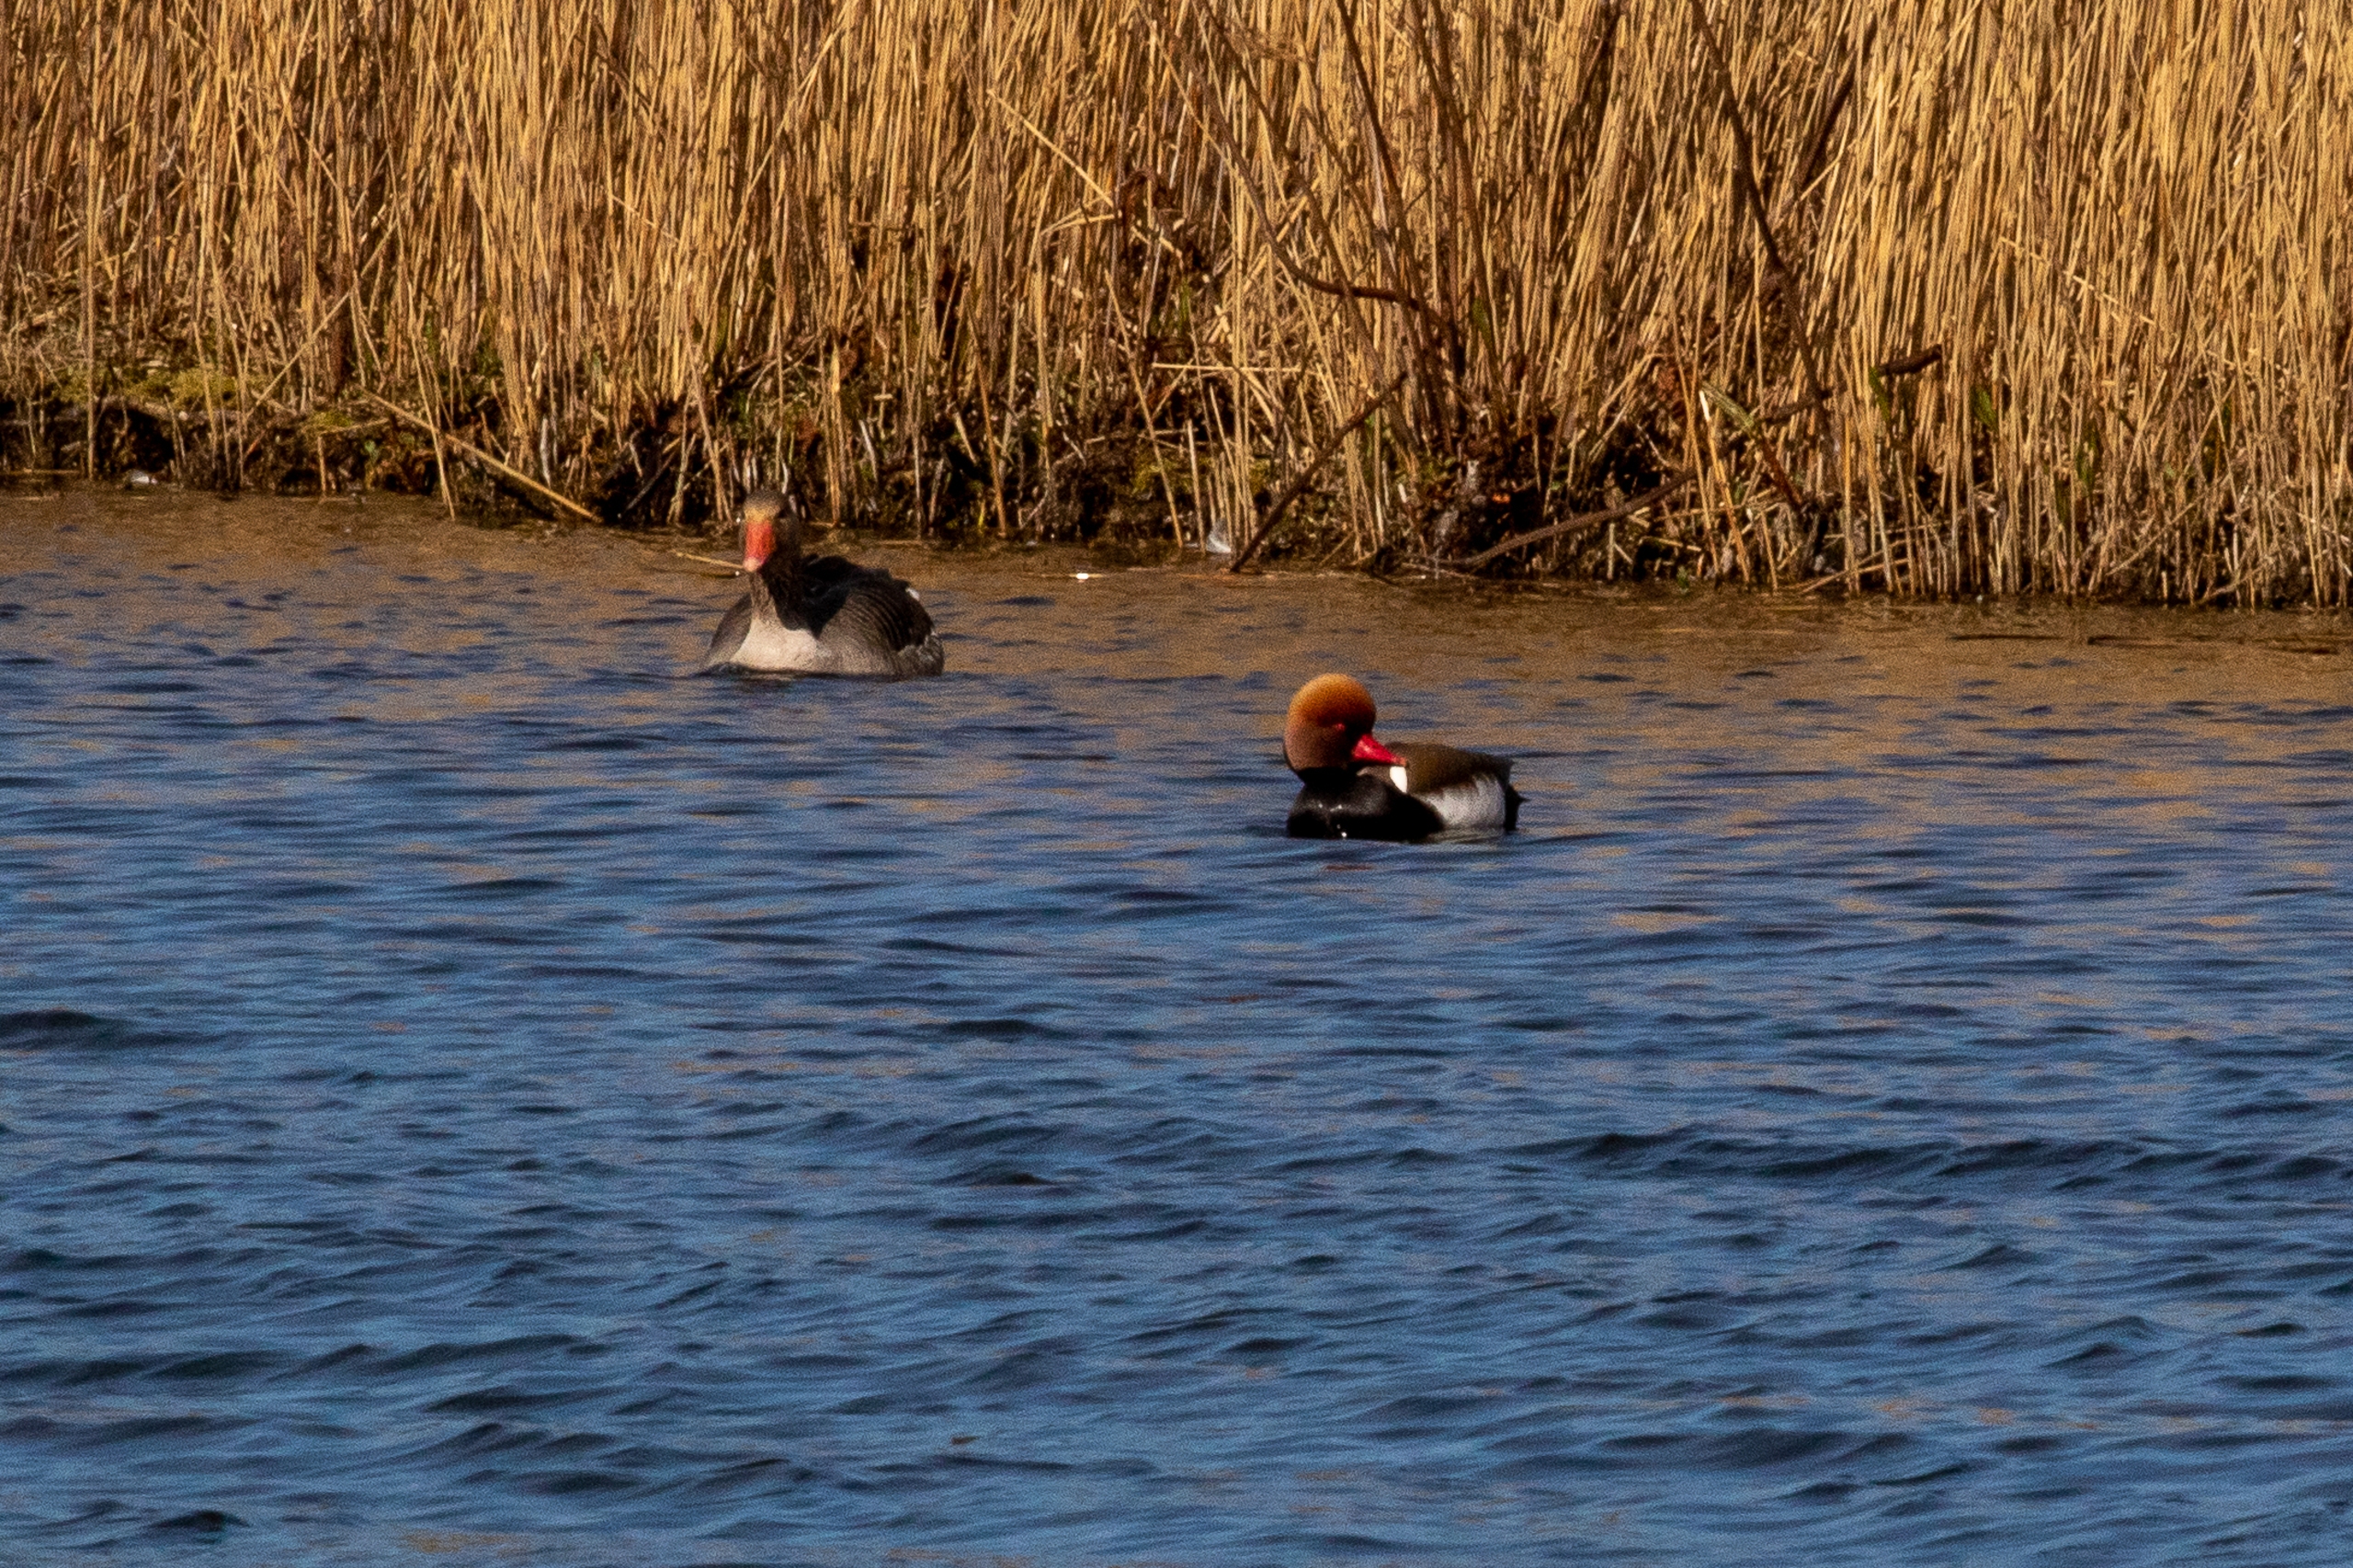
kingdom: Animalia
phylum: Chordata
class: Aves
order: Anseriformes
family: Anatidae
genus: Anser
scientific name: Anser anser
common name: Grågås
